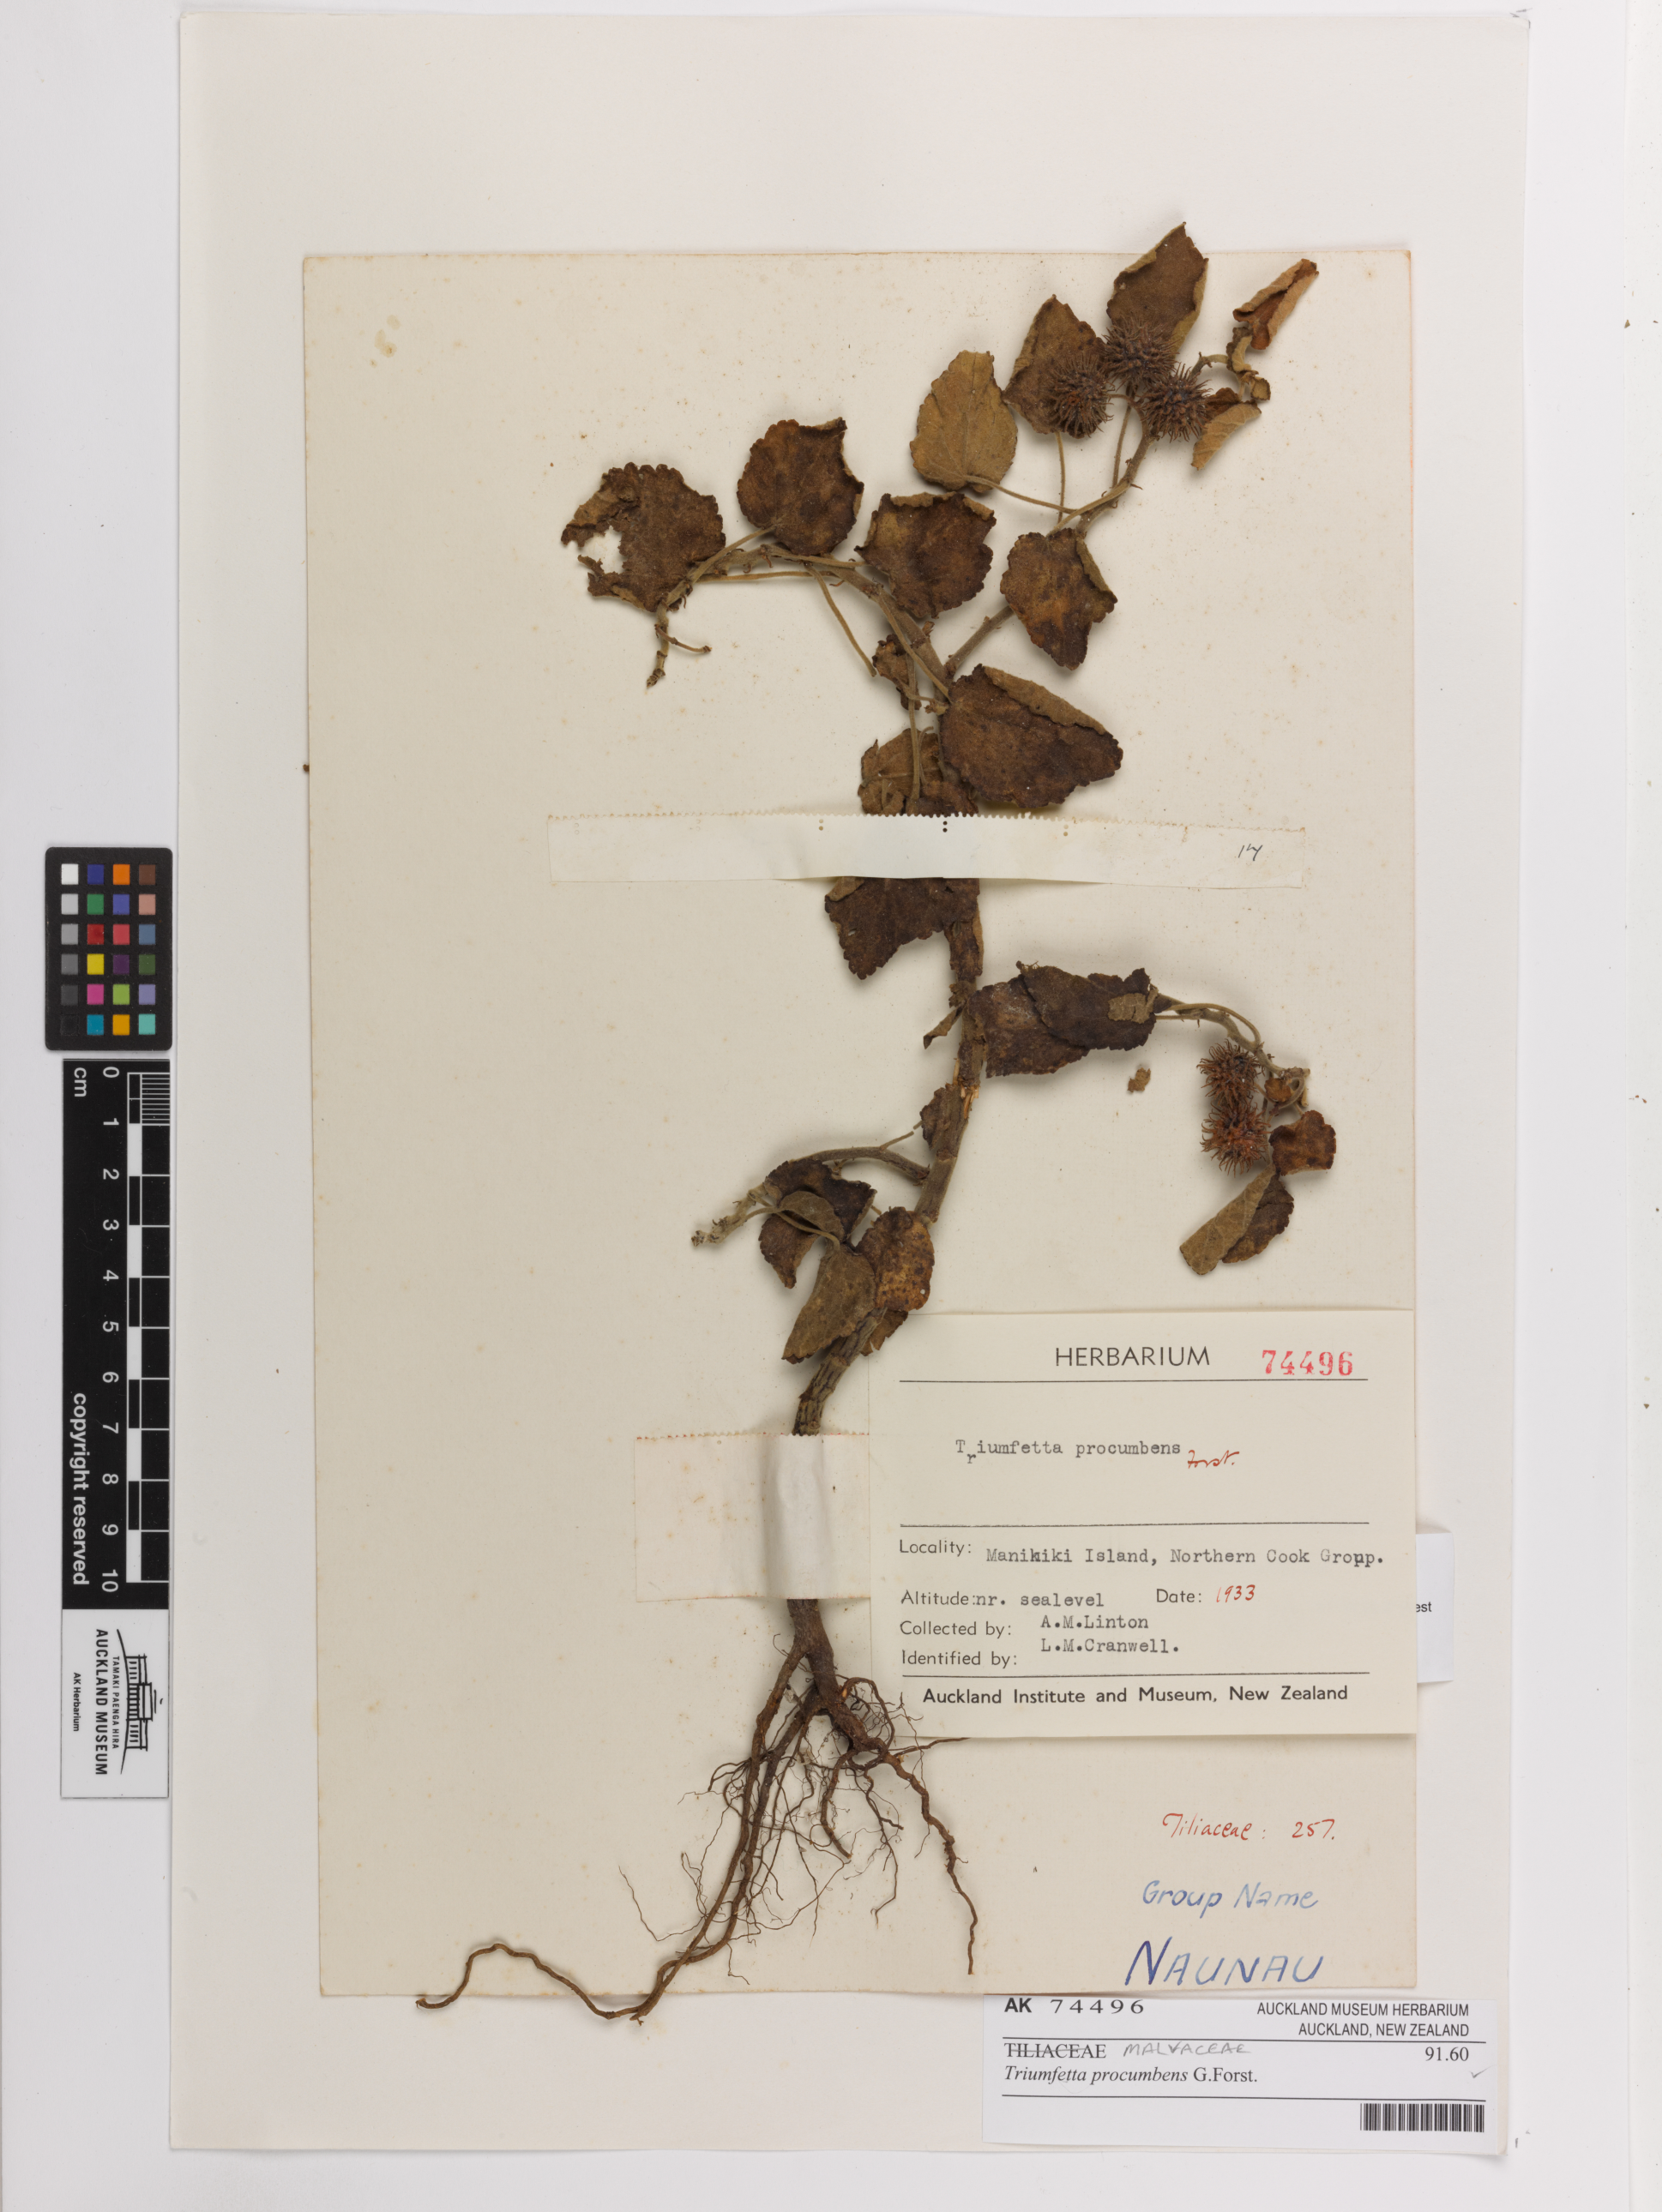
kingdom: Plantae
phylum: Tracheophyta
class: Magnoliopsida
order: Malvales
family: Malvaceae
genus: Triumfetta
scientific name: Triumfetta procumbens
